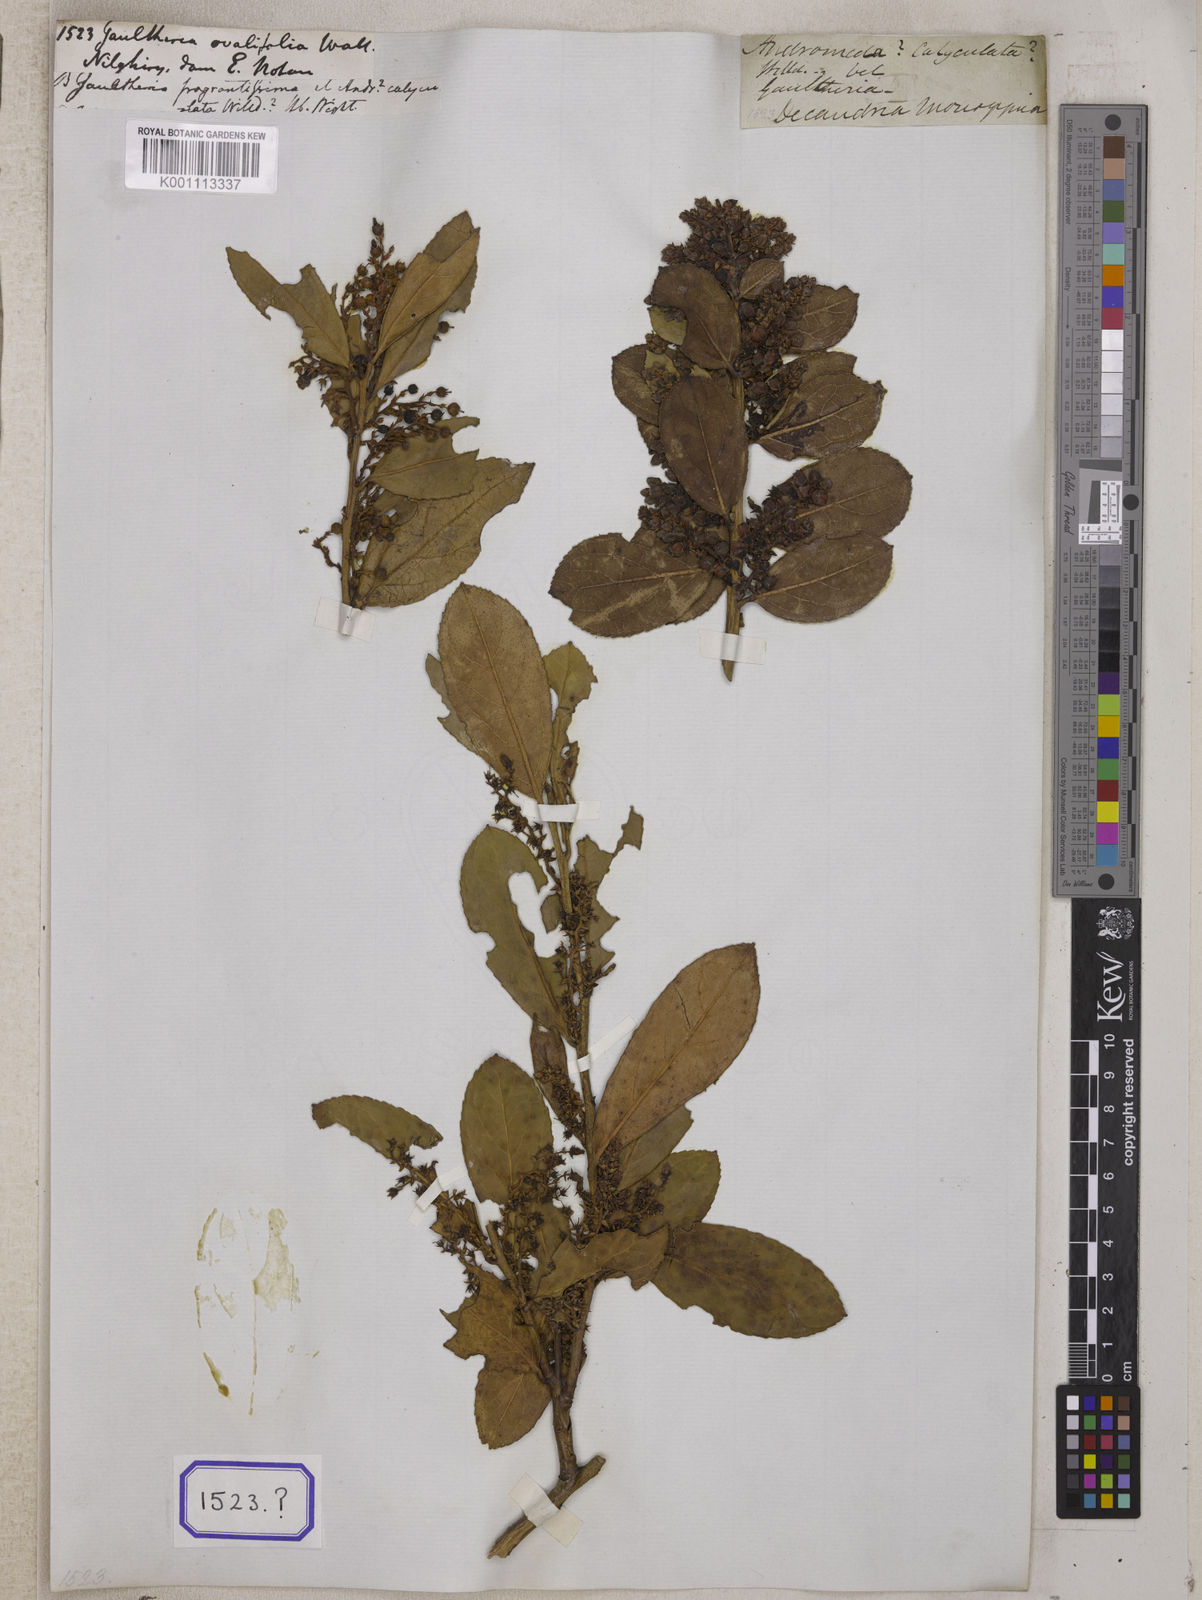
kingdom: Plantae
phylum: Tracheophyta
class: Magnoliopsida
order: Ericales
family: Ericaceae
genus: Gaultheria
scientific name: Gaultheria fragrantissima
